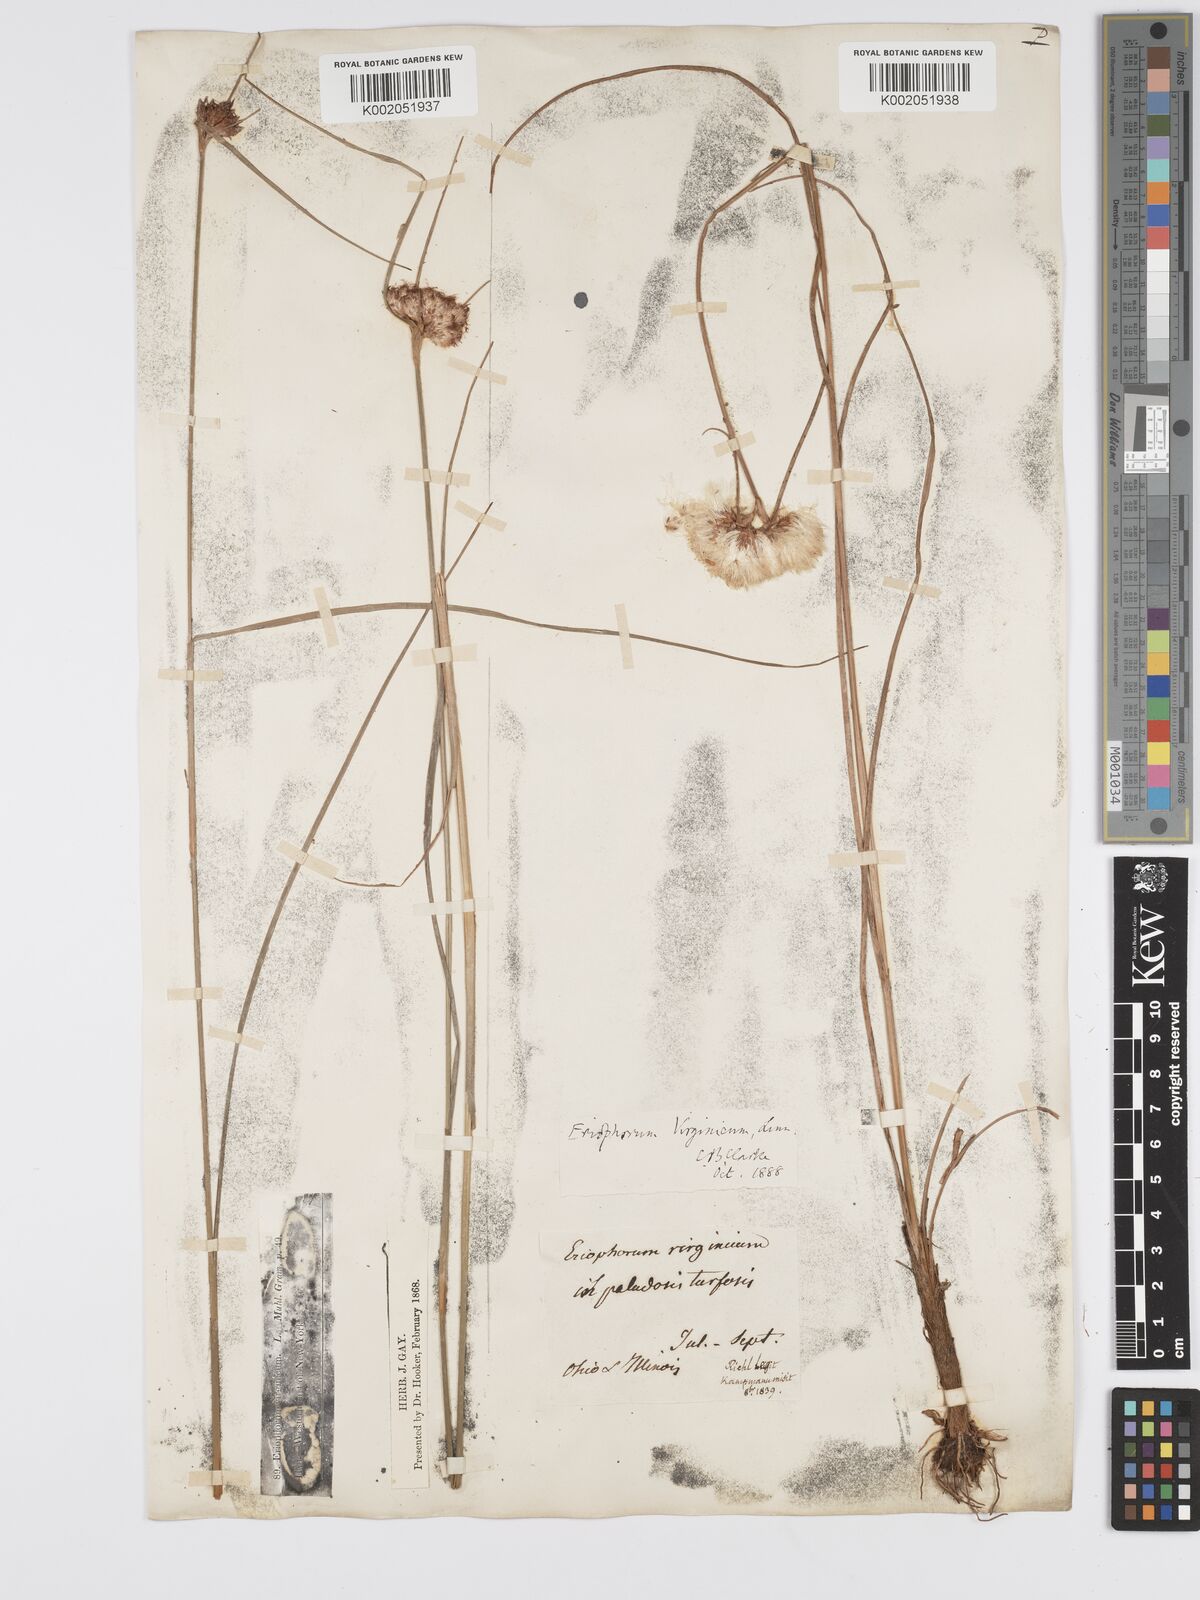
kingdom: Plantae
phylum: Tracheophyta
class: Liliopsida
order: Poales
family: Cyperaceae
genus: Eriophorum
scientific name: Eriophorum virginicum
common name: Tawny cottongrass
